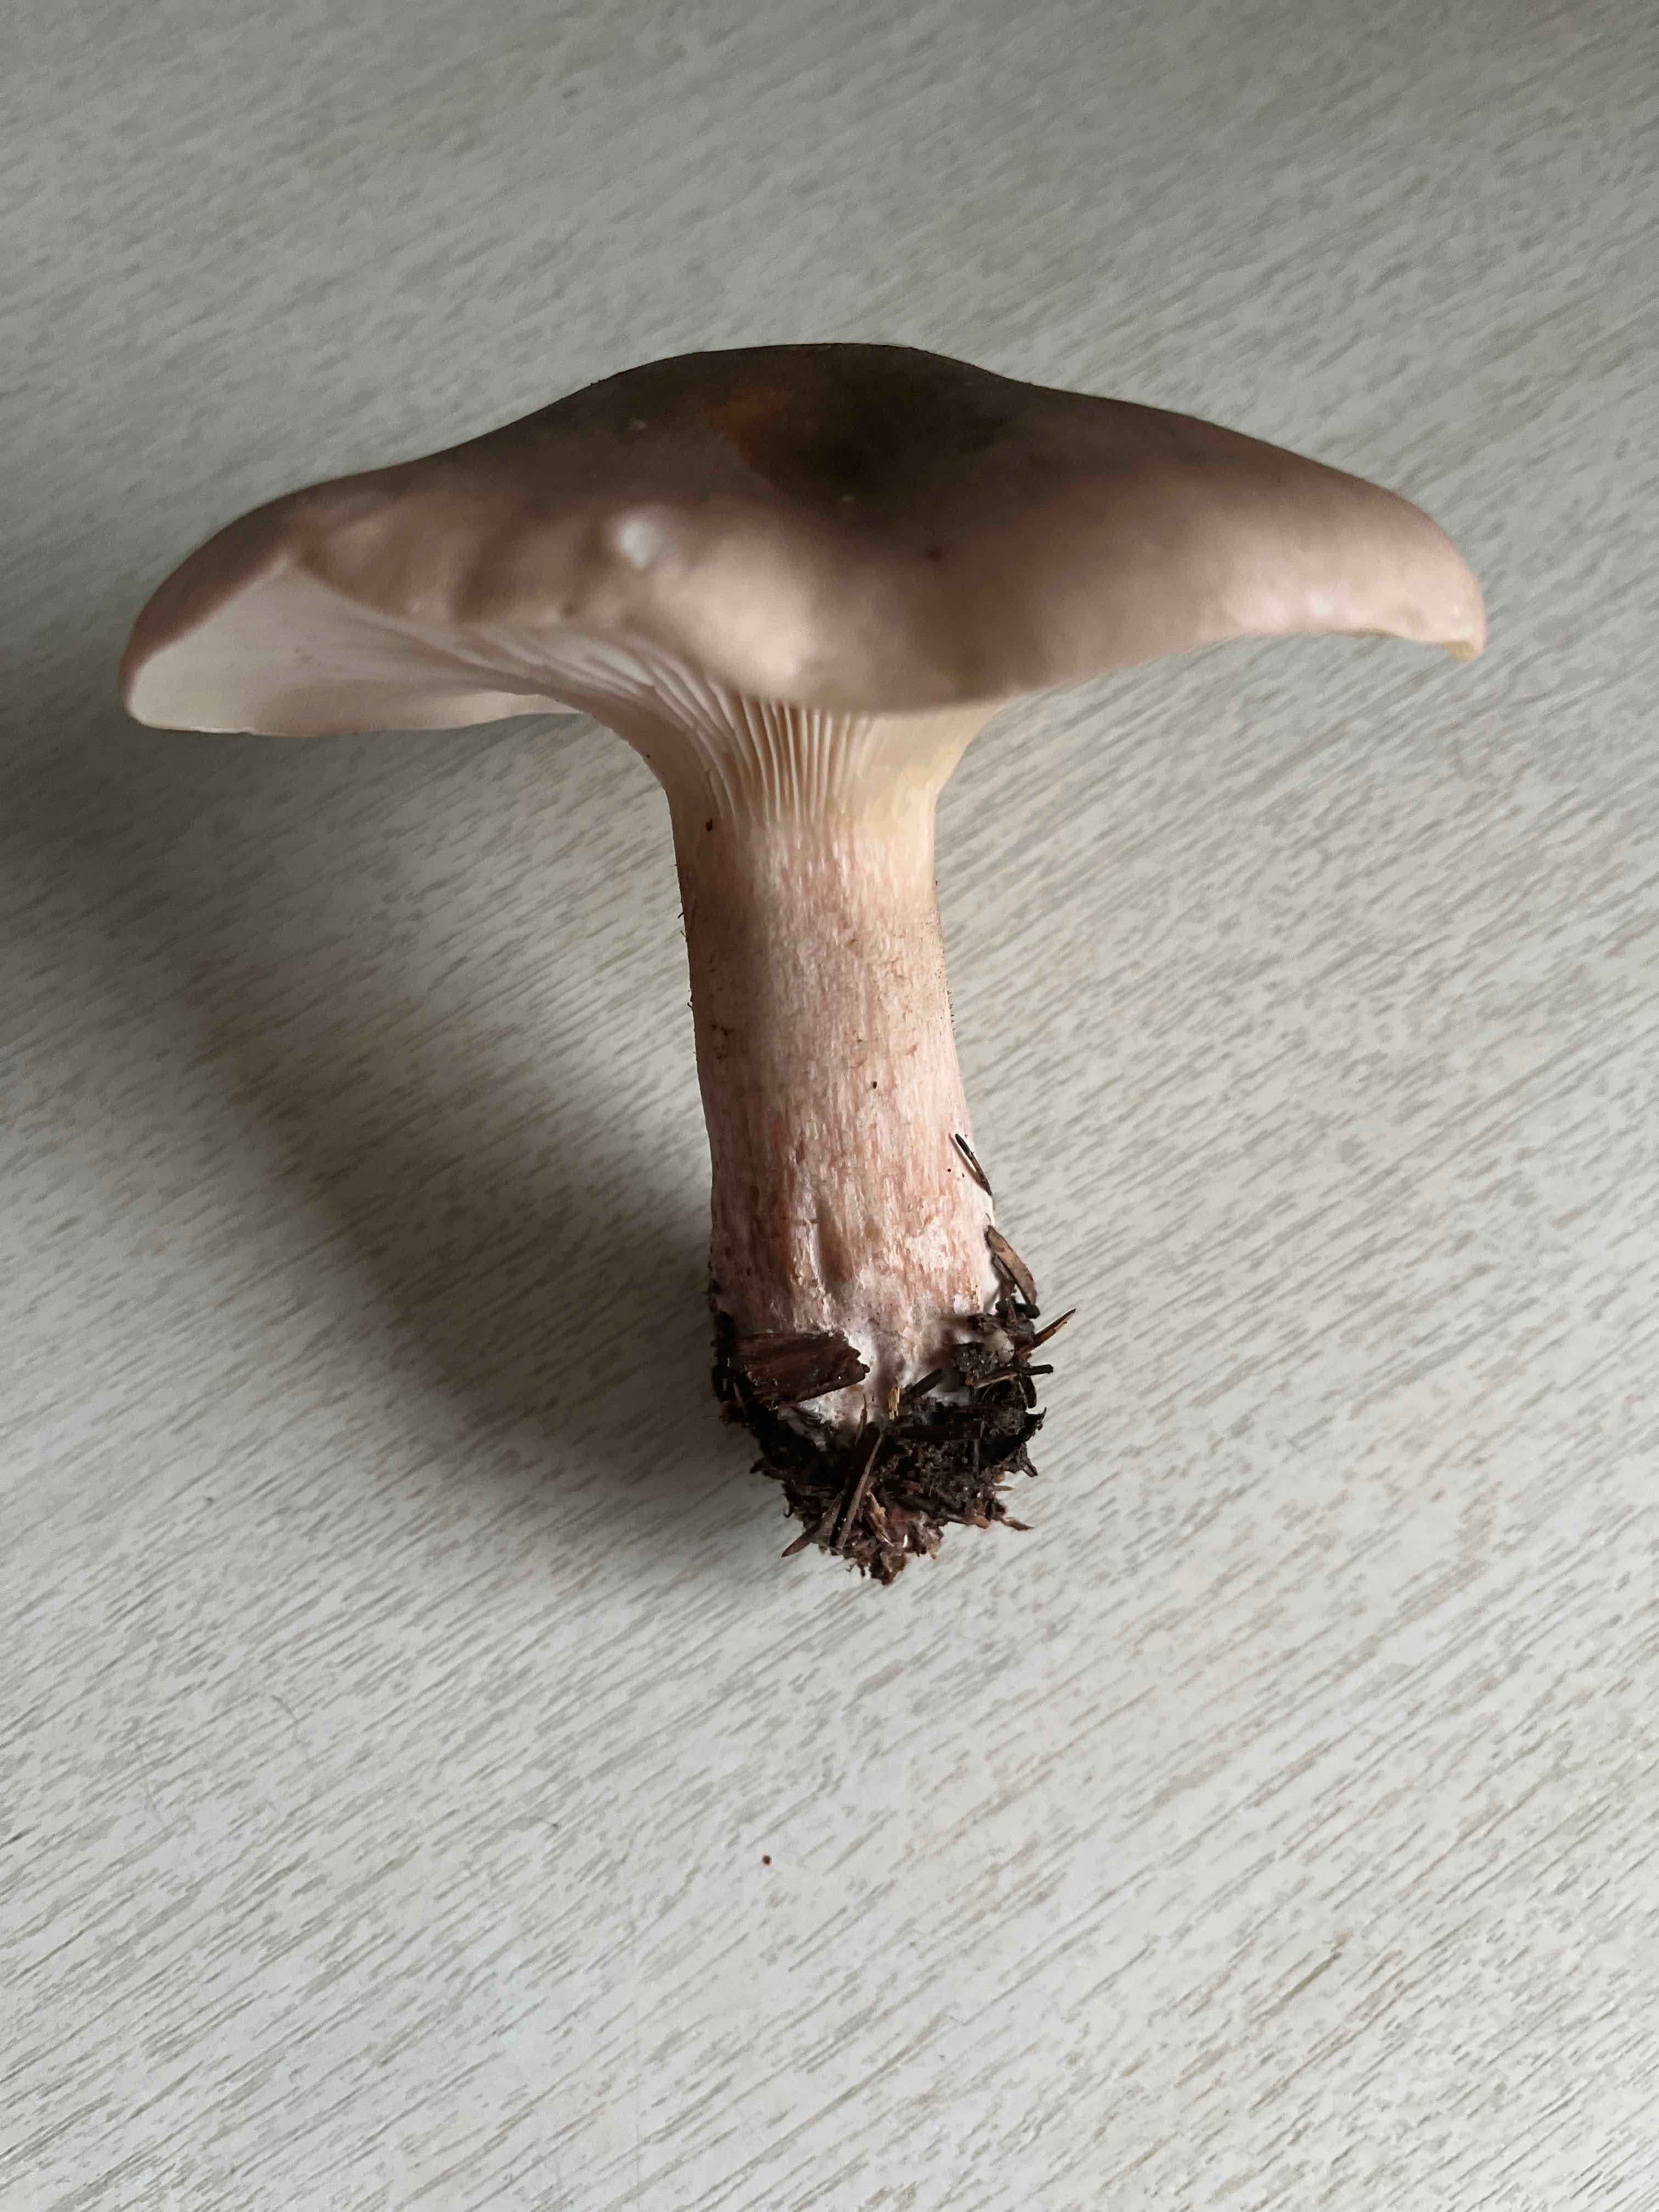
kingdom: Fungi
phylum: Basidiomycota
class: Agaricomycetes
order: Agaricales
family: Tricholomataceae
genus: Clitocybe
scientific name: Clitocybe nebularis
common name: tåge-tragthat
